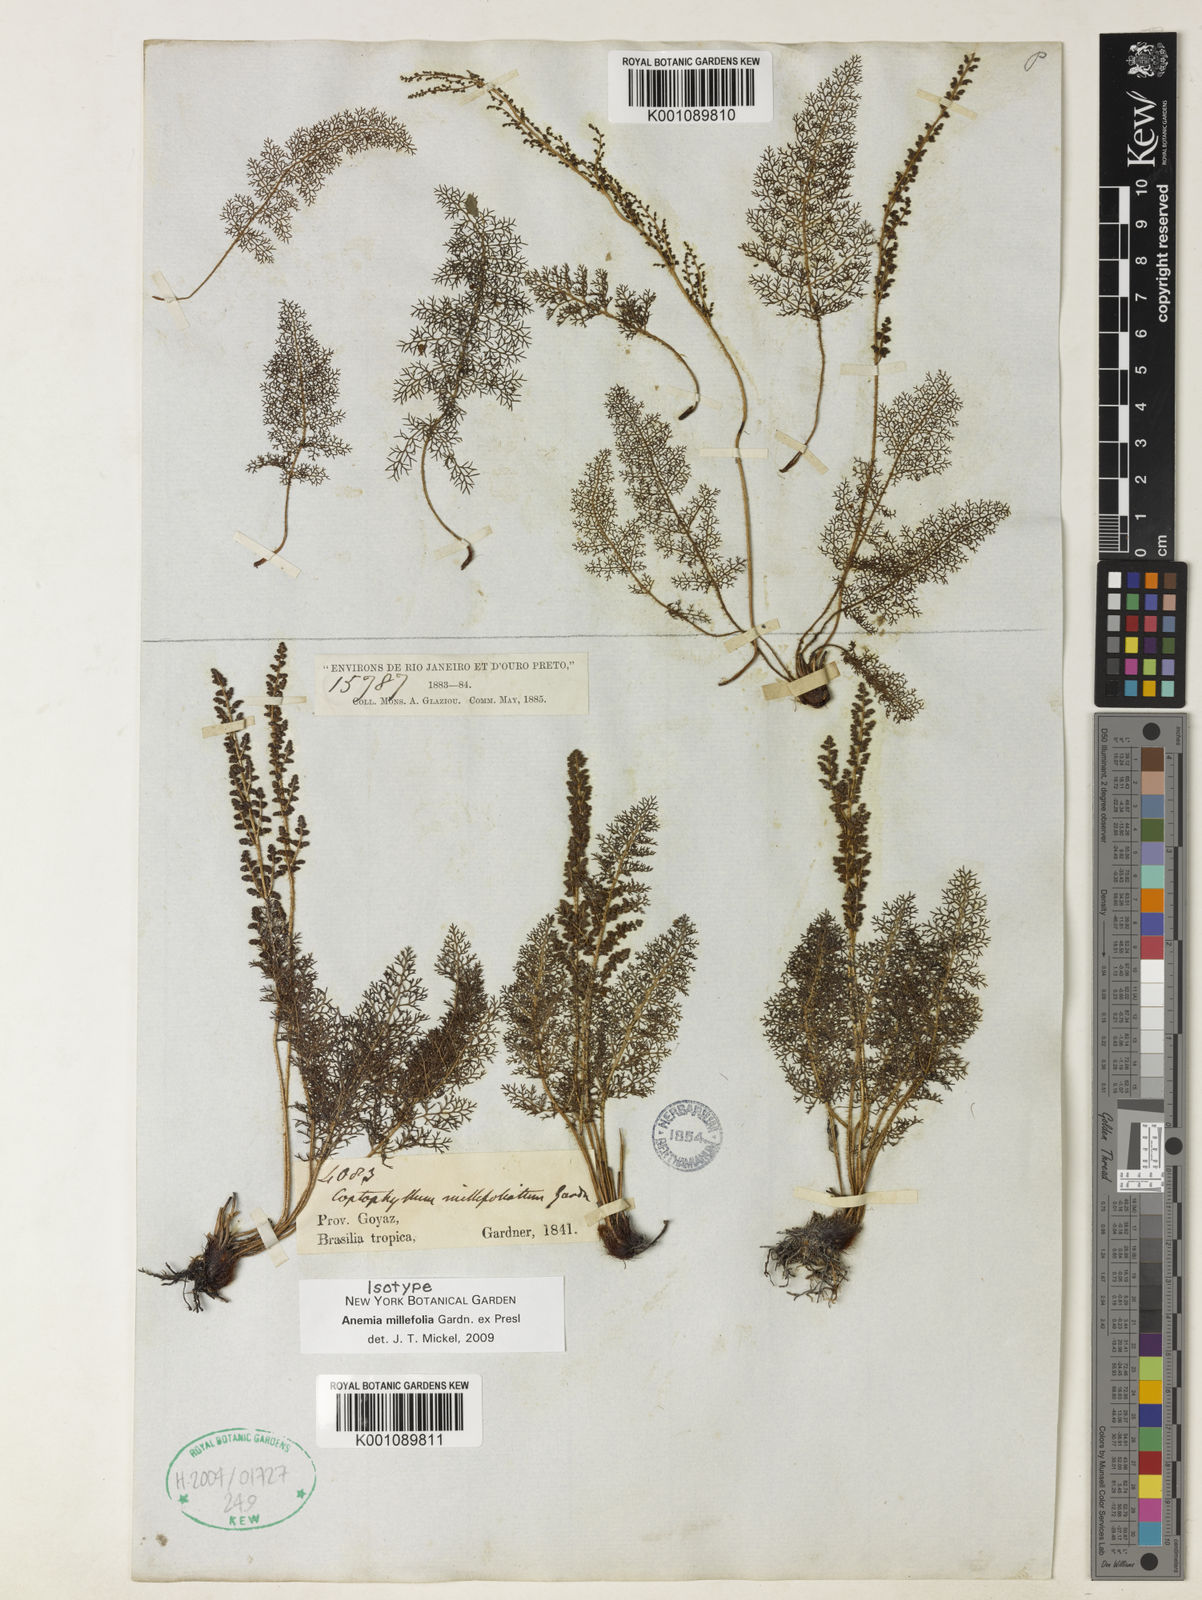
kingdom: Plantae
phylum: Tracheophyta
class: Polypodiopsida
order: Schizaeales
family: Anemiaceae
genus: Anemia
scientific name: Anemia millefolia
